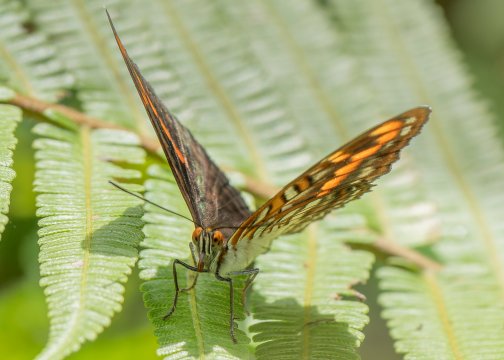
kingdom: Animalia
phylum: Arthropoda
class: Insecta
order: Lepidoptera
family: Nymphalidae
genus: Limenitis
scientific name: Limenitis levona
